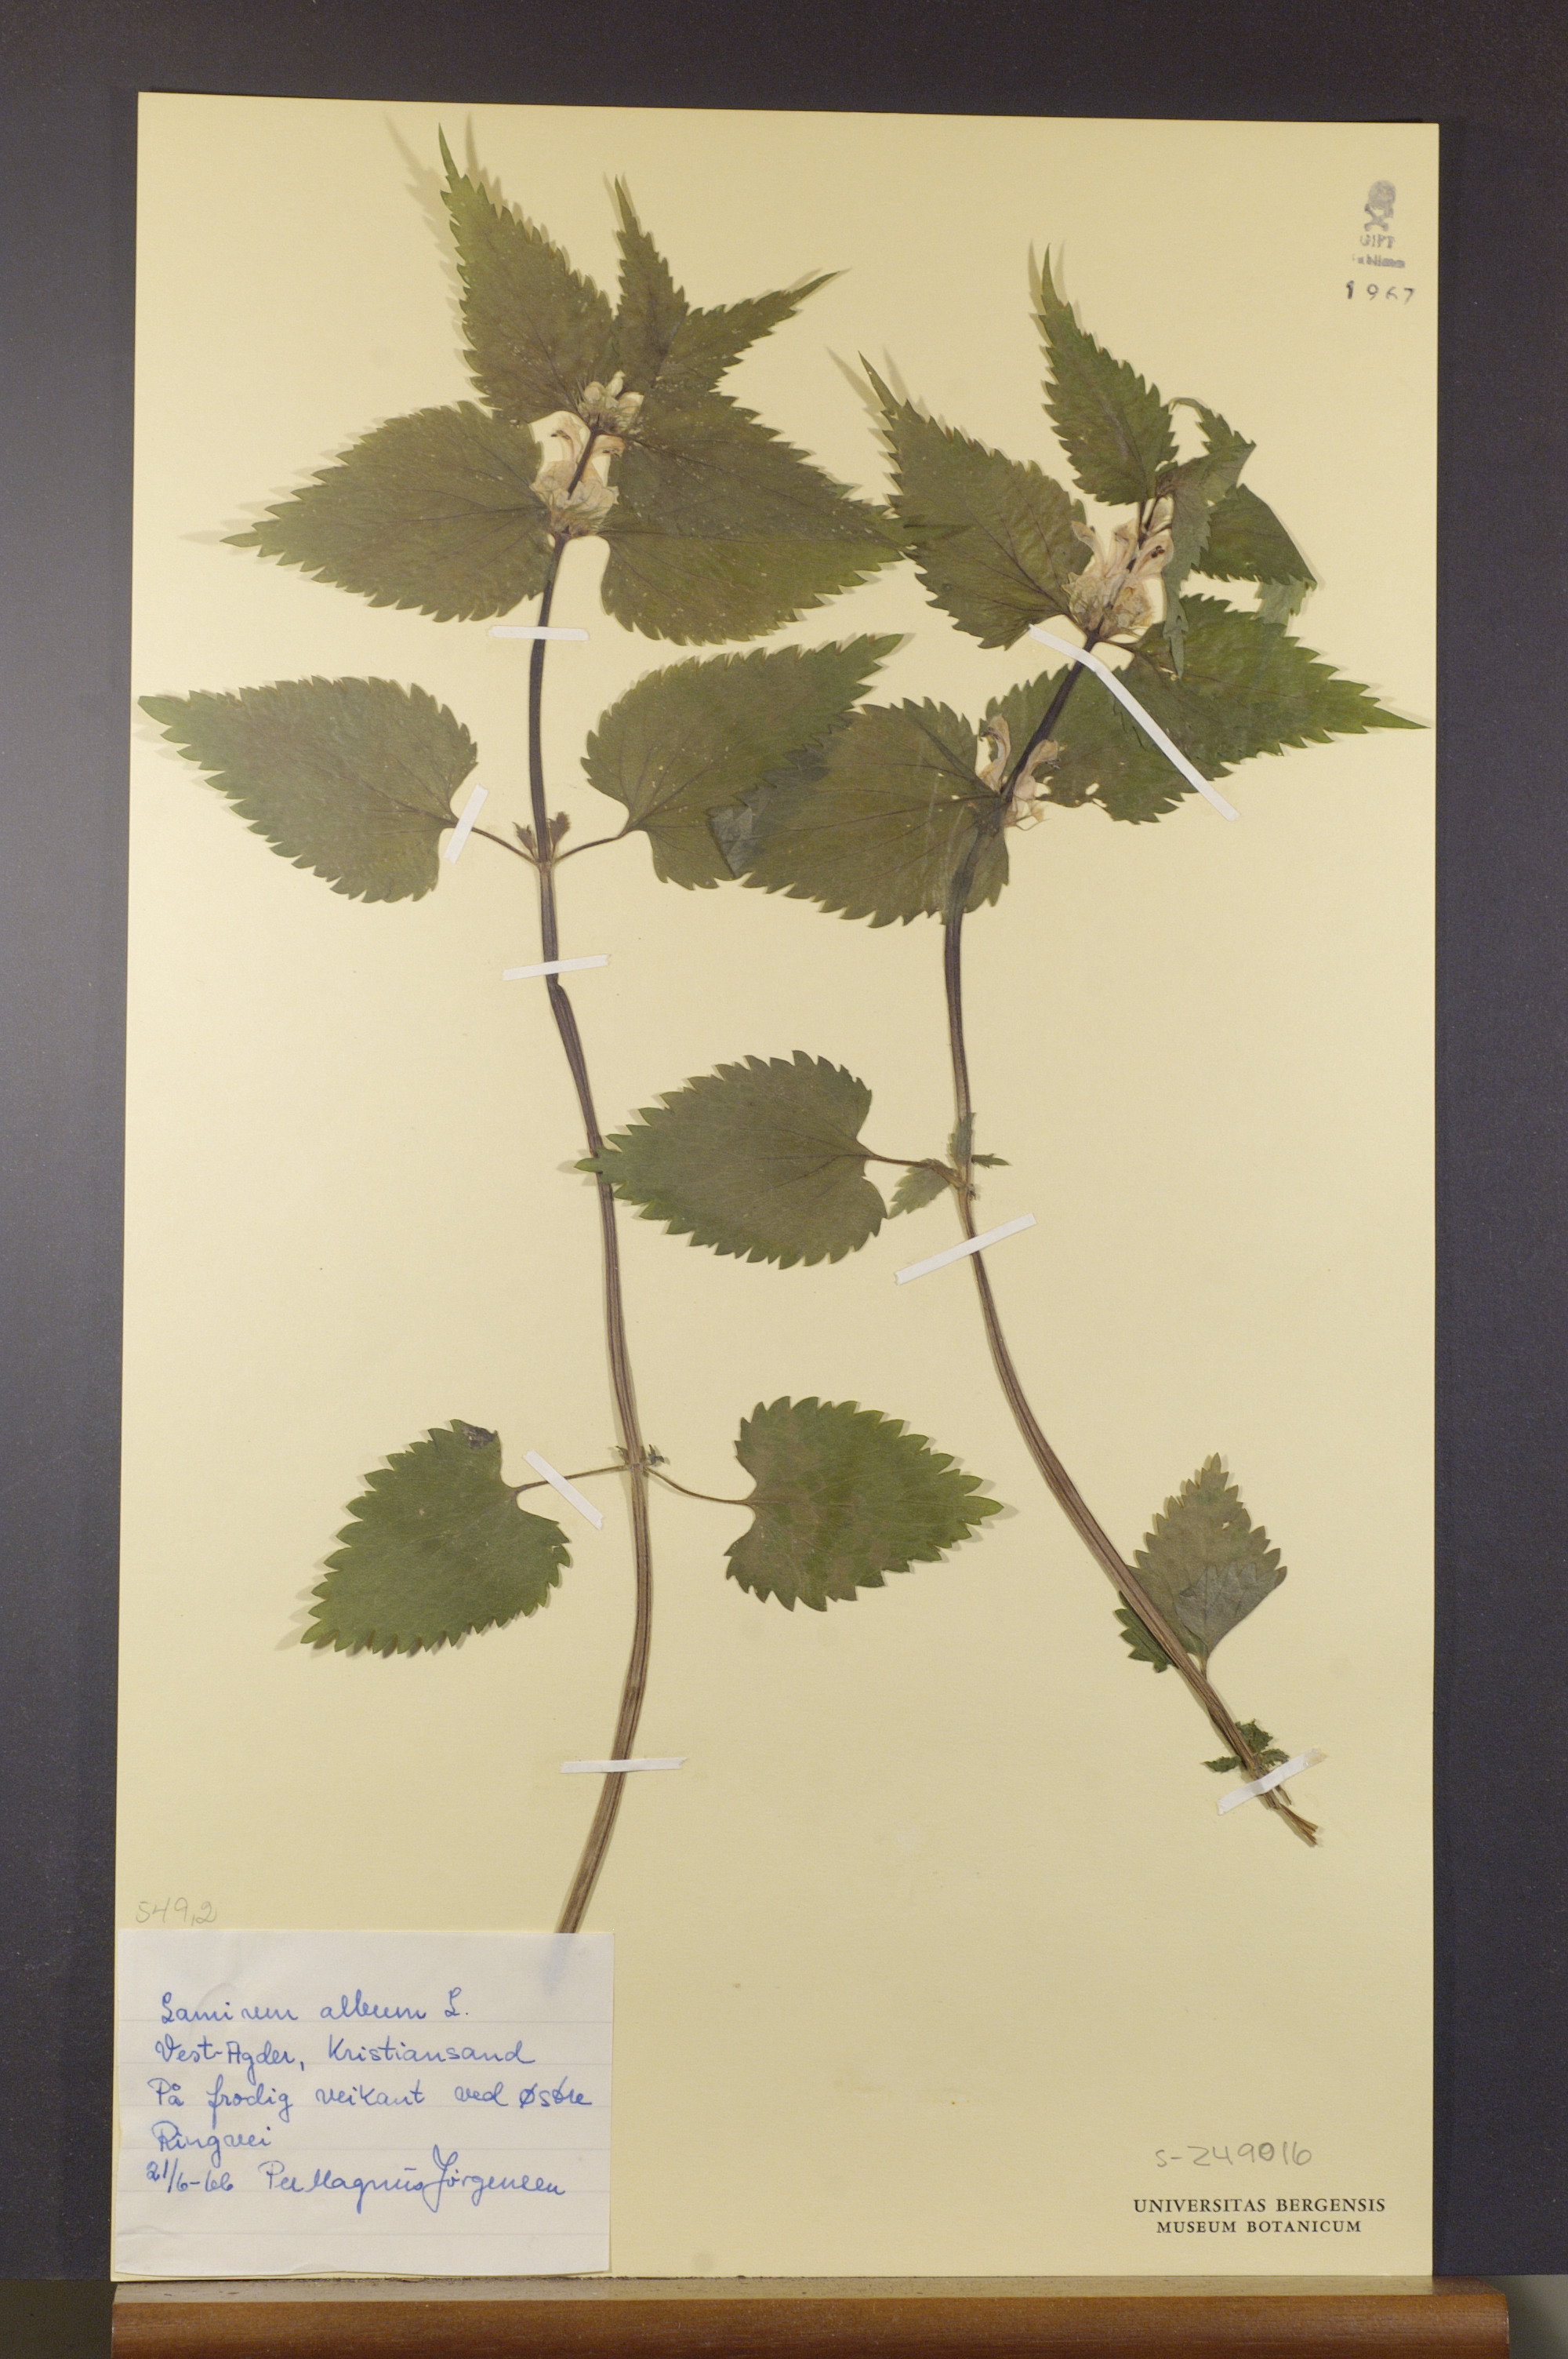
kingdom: Plantae
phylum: Tracheophyta
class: Magnoliopsida
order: Lamiales
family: Lamiaceae
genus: Lamium
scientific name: Lamium album
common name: White dead-nettle
